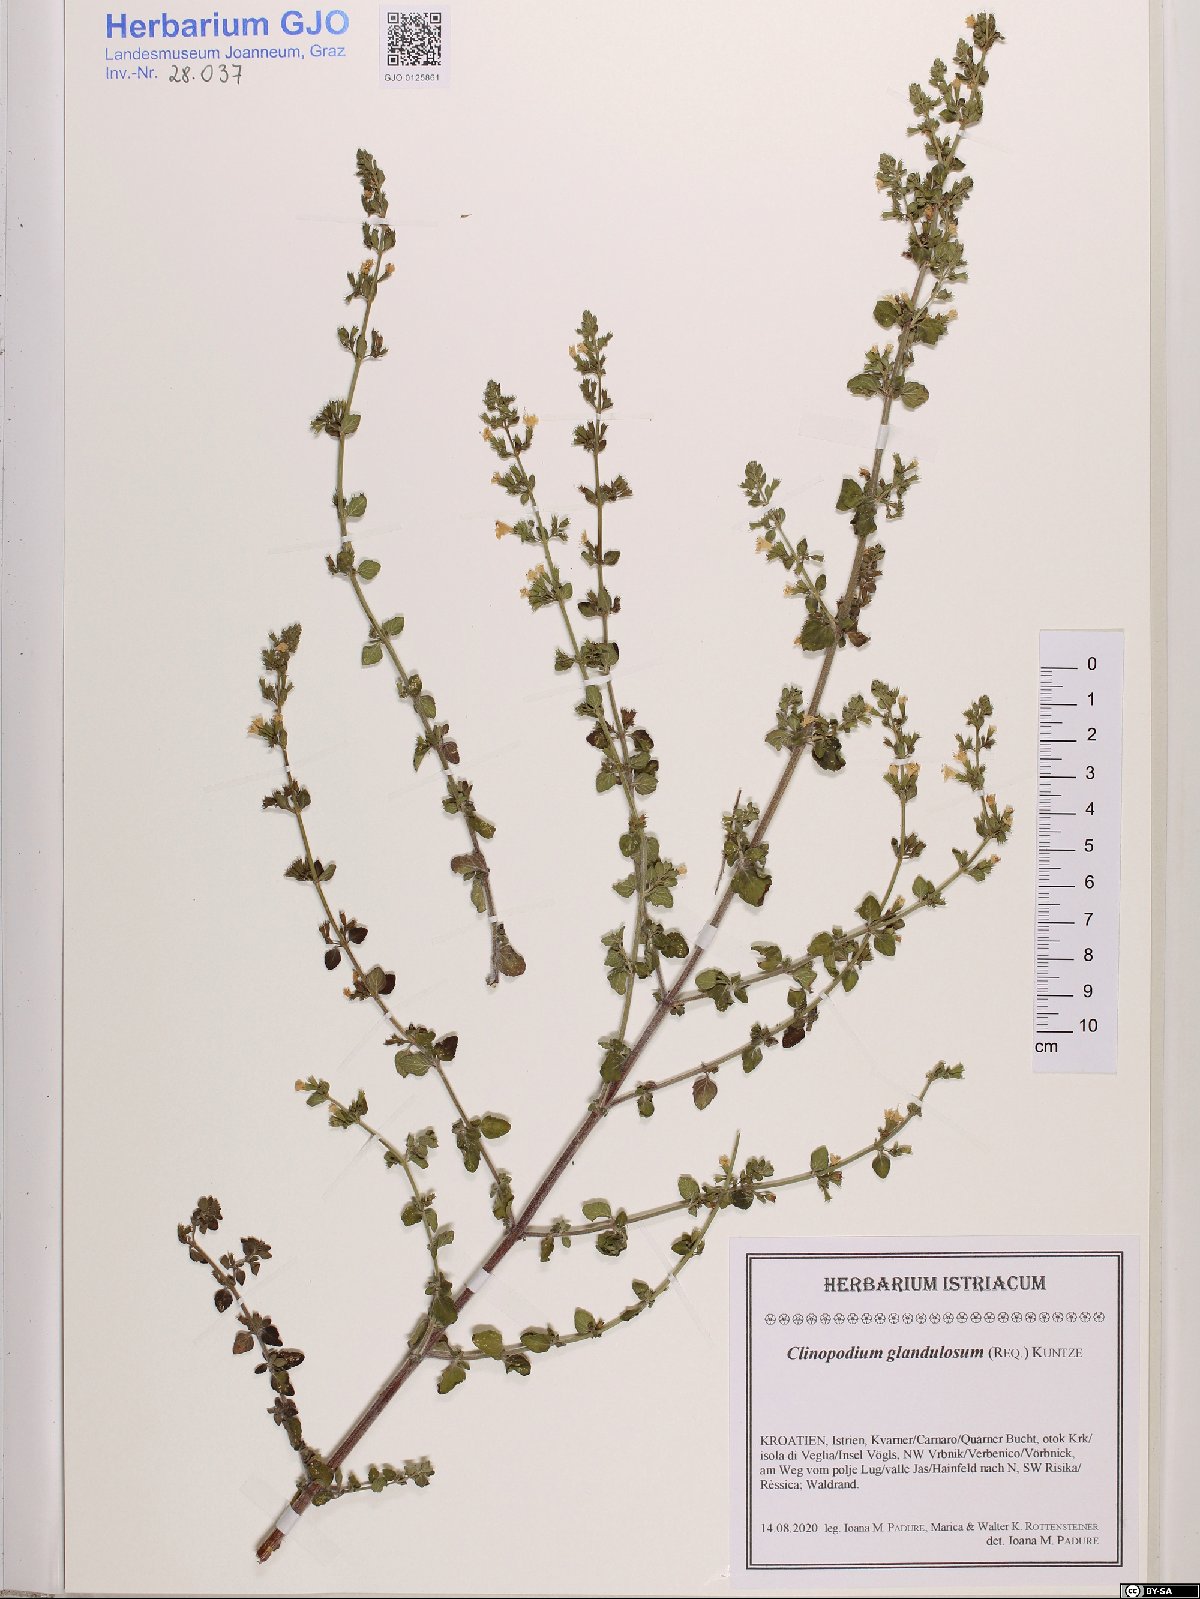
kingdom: Plantae
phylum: Tracheophyta
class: Magnoliopsida
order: Lamiales
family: Lamiaceae
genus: Clinopodium
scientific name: Clinopodium nepeta
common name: Lesser calamint
